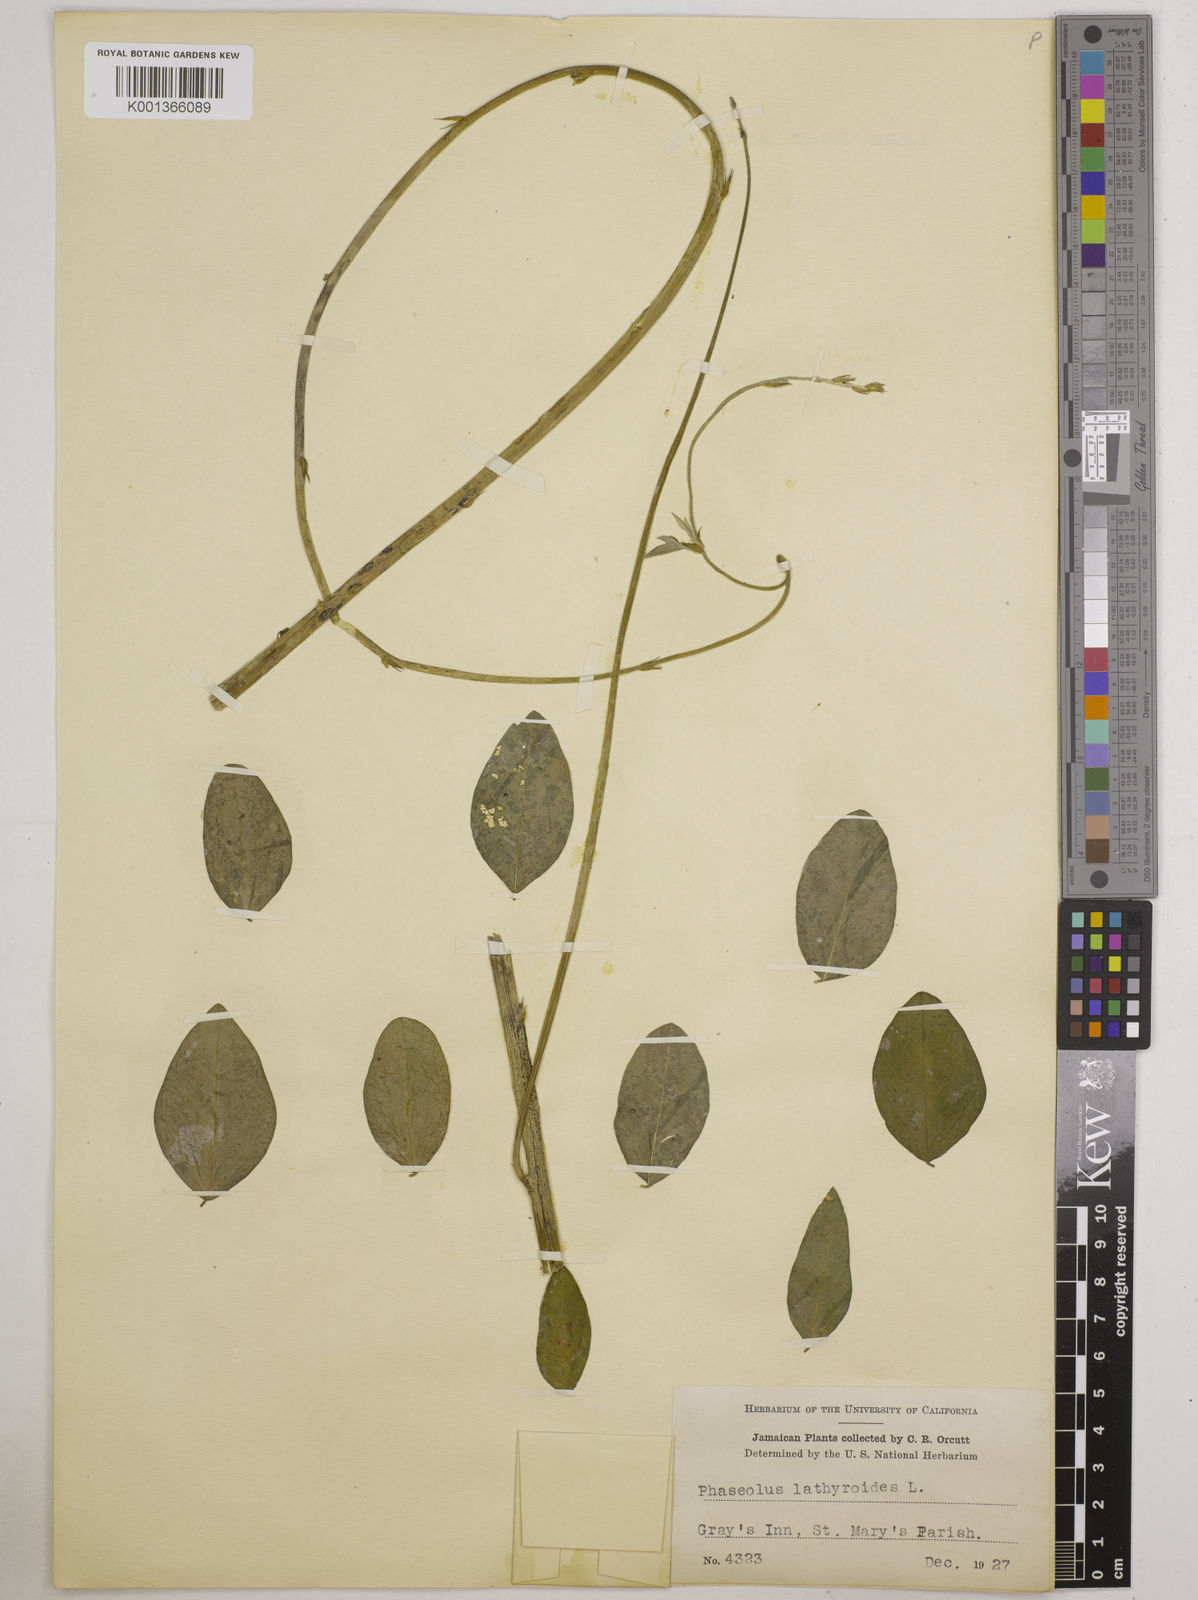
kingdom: Plantae
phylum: Tracheophyta
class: Magnoliopsida
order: Fabales
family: Fabaceae
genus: Macroptilium
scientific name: Macroptilium lathyroides
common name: Wild bushbean
